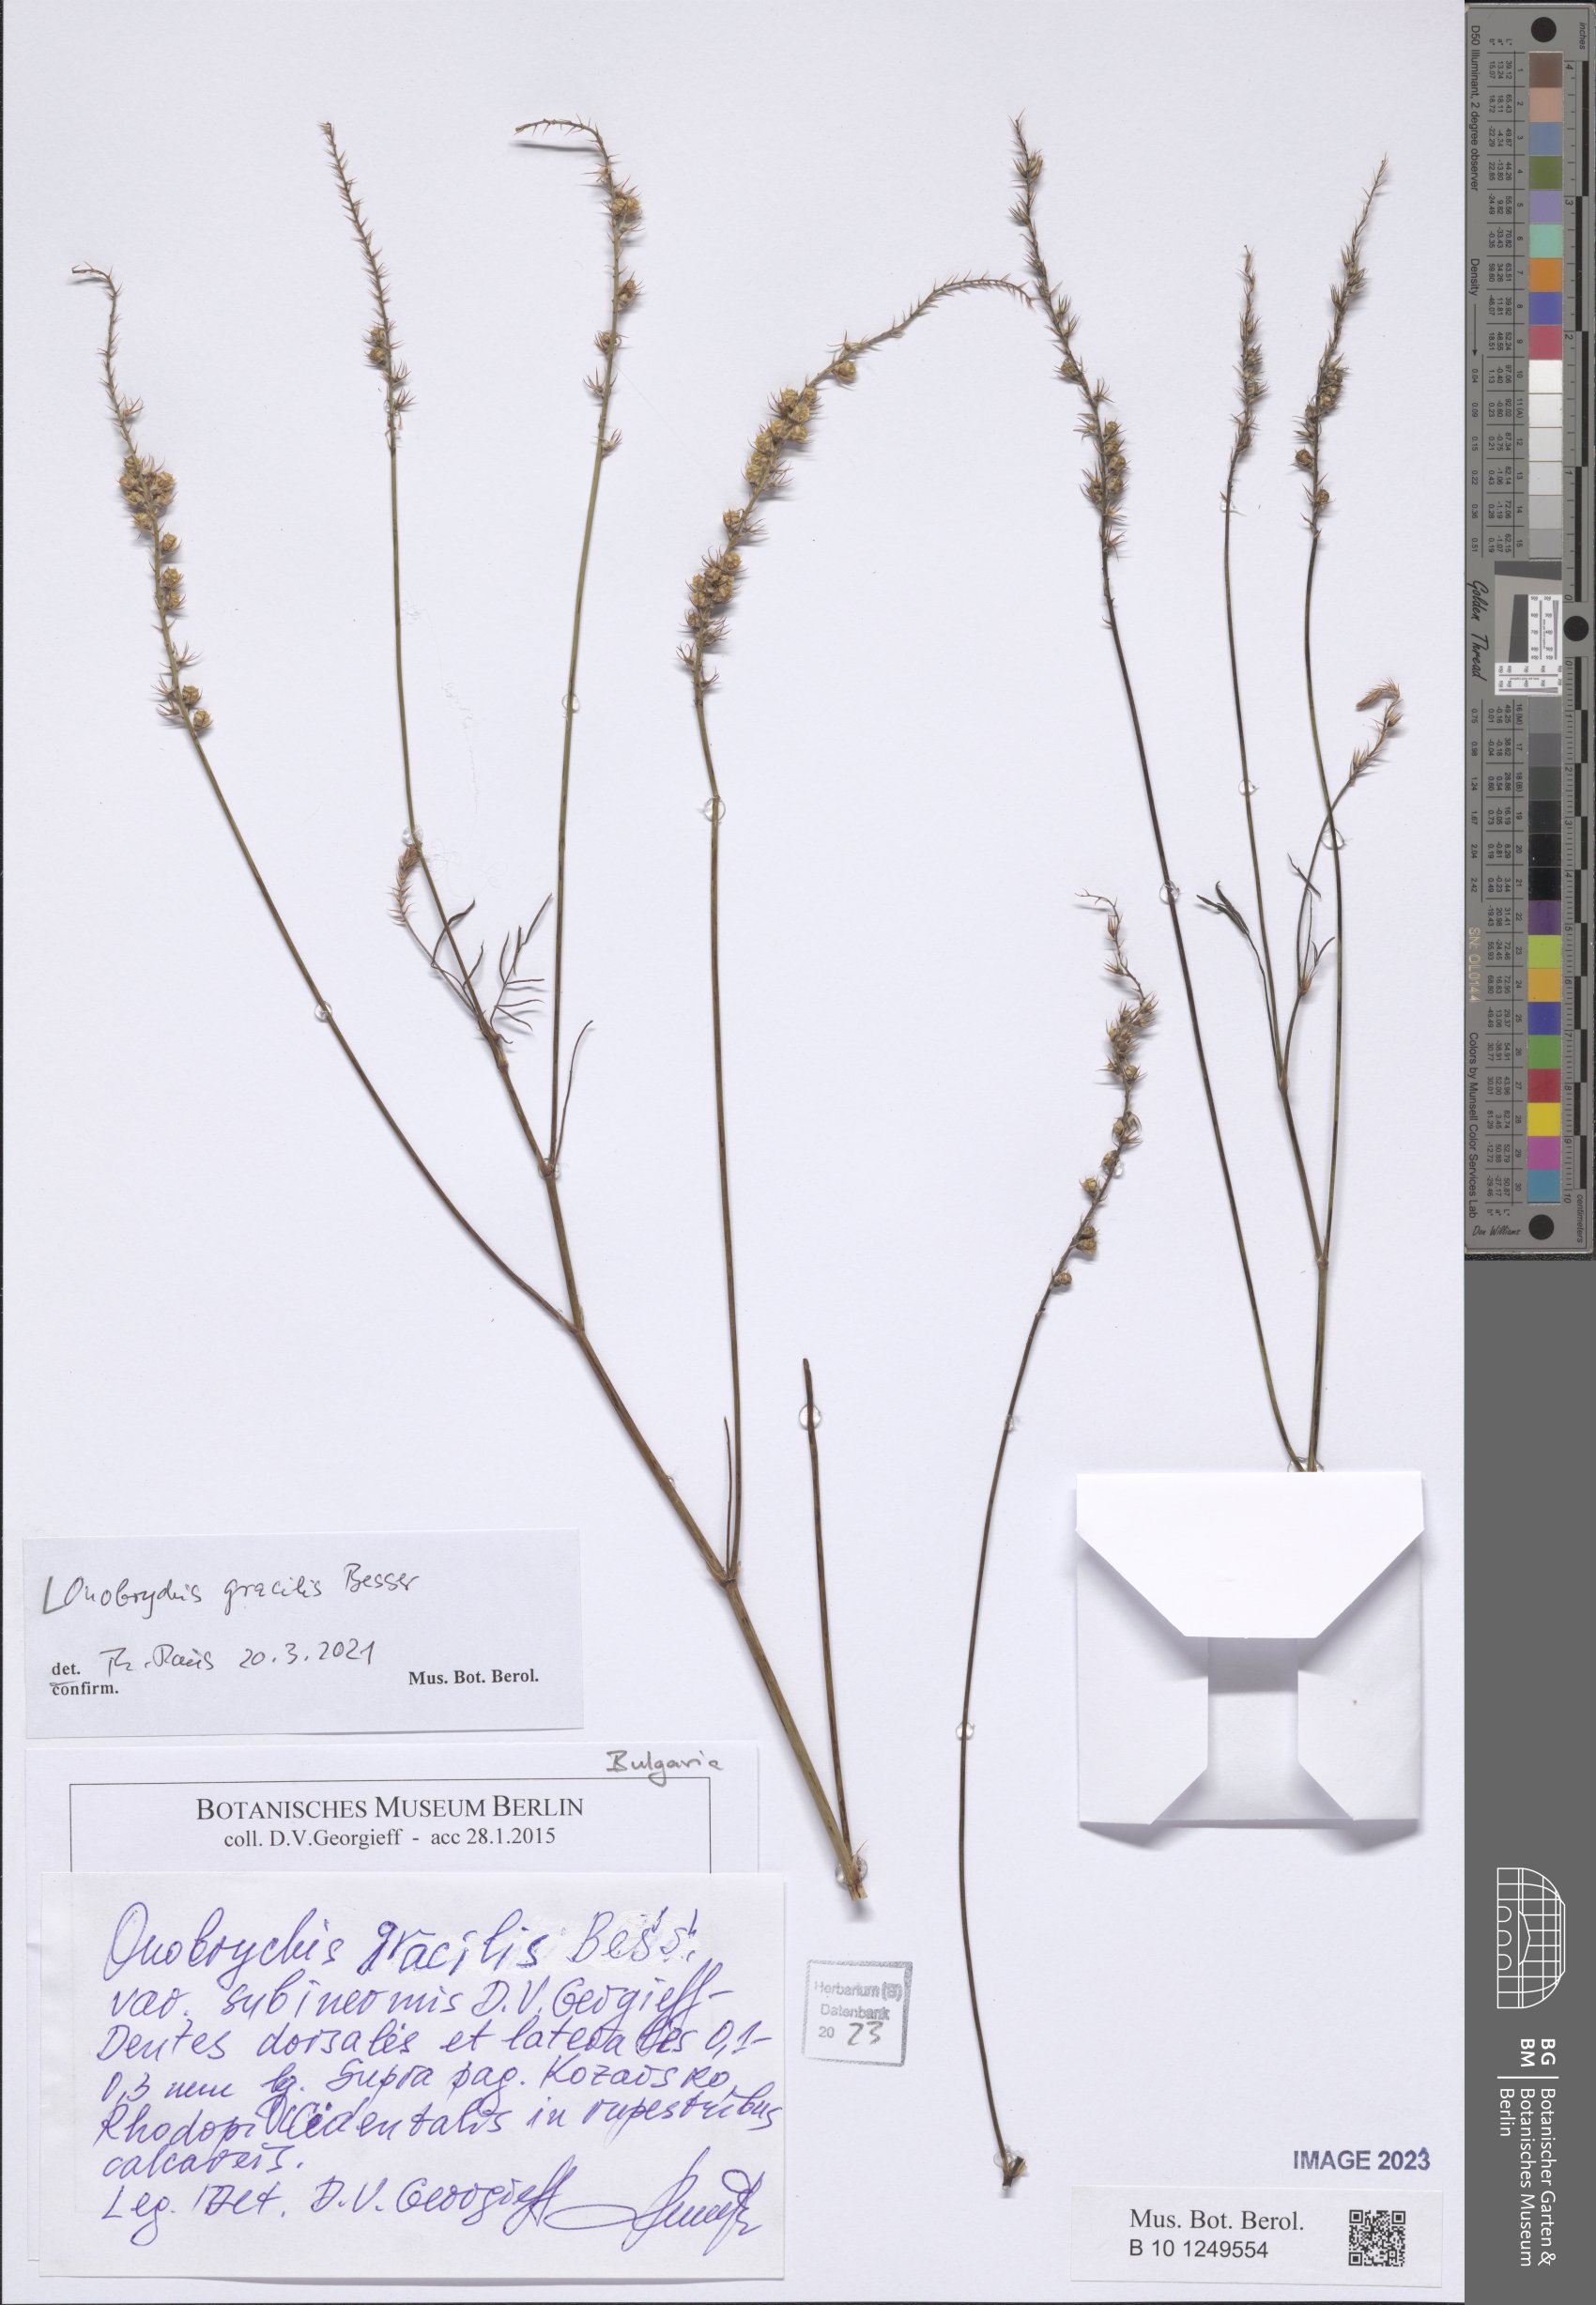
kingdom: Plantae
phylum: Tracheophyta
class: Magnoliopsida
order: Fabales
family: Fabaceae
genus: Onobrychis
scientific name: Onobrychis gracilis
